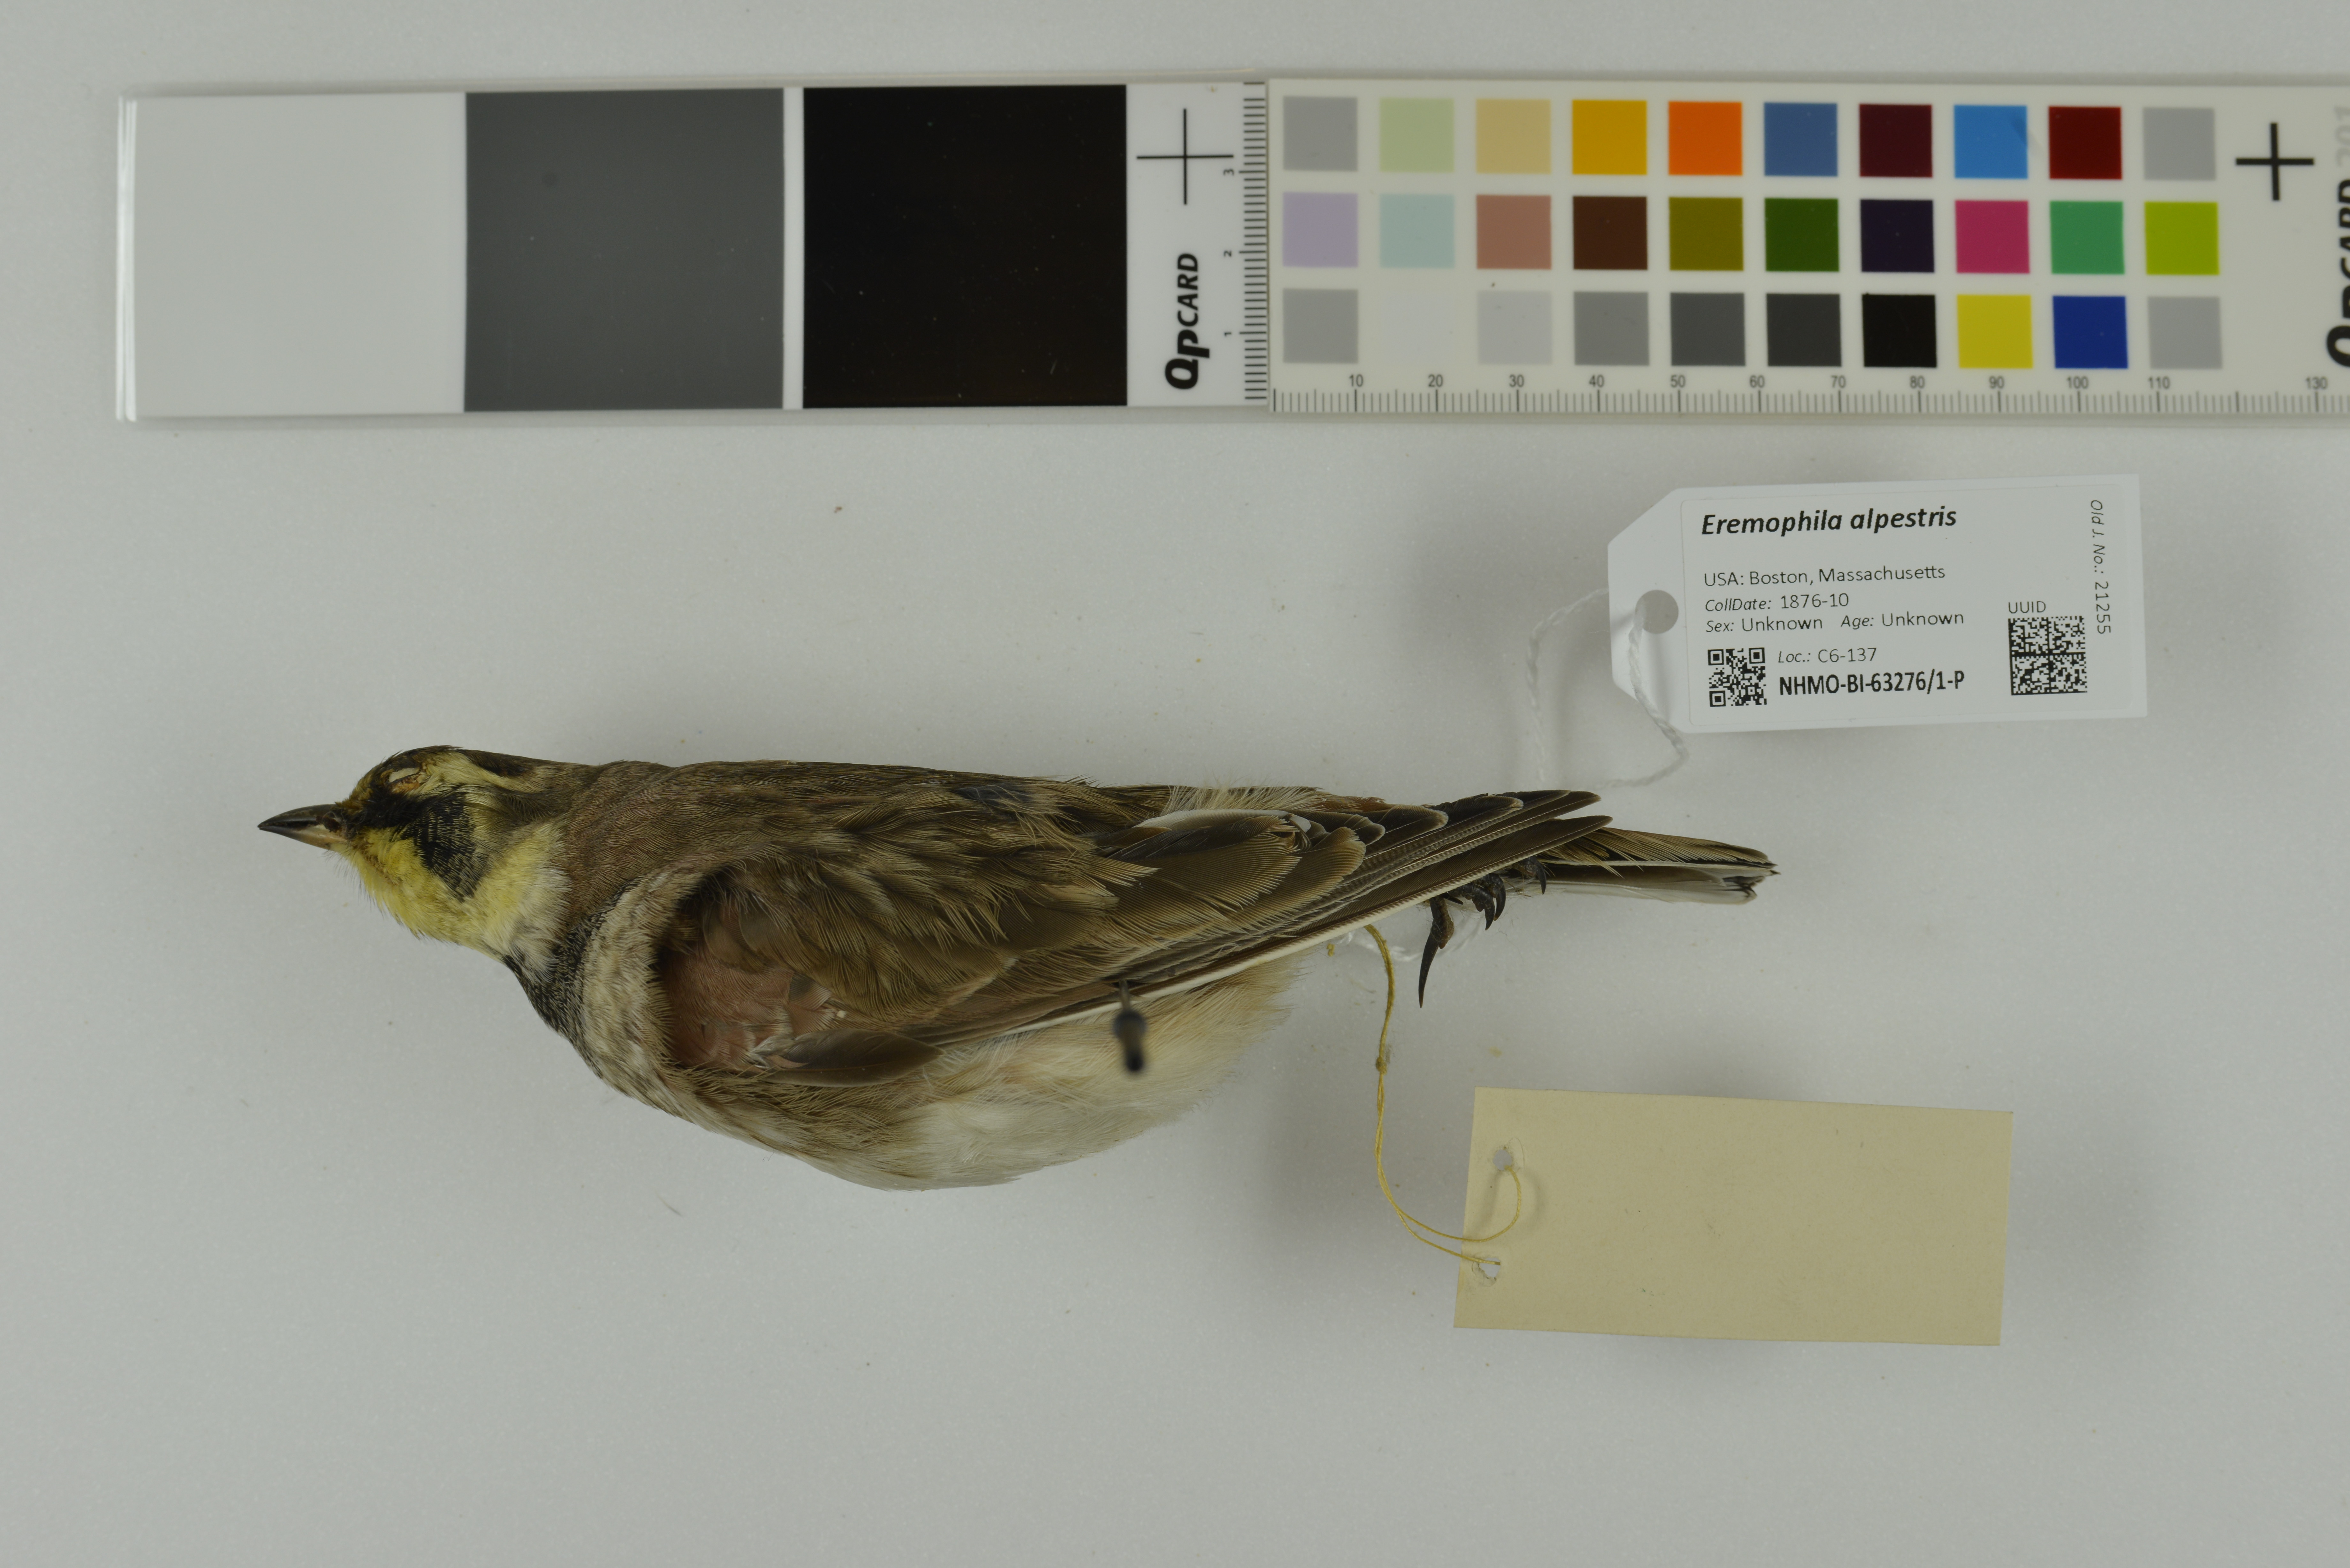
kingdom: Animalia
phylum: Chordata
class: Aves
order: Passeriformes
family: Alaudidae
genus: Eremophila
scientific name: Eremophila alpestris
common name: Horned lark
